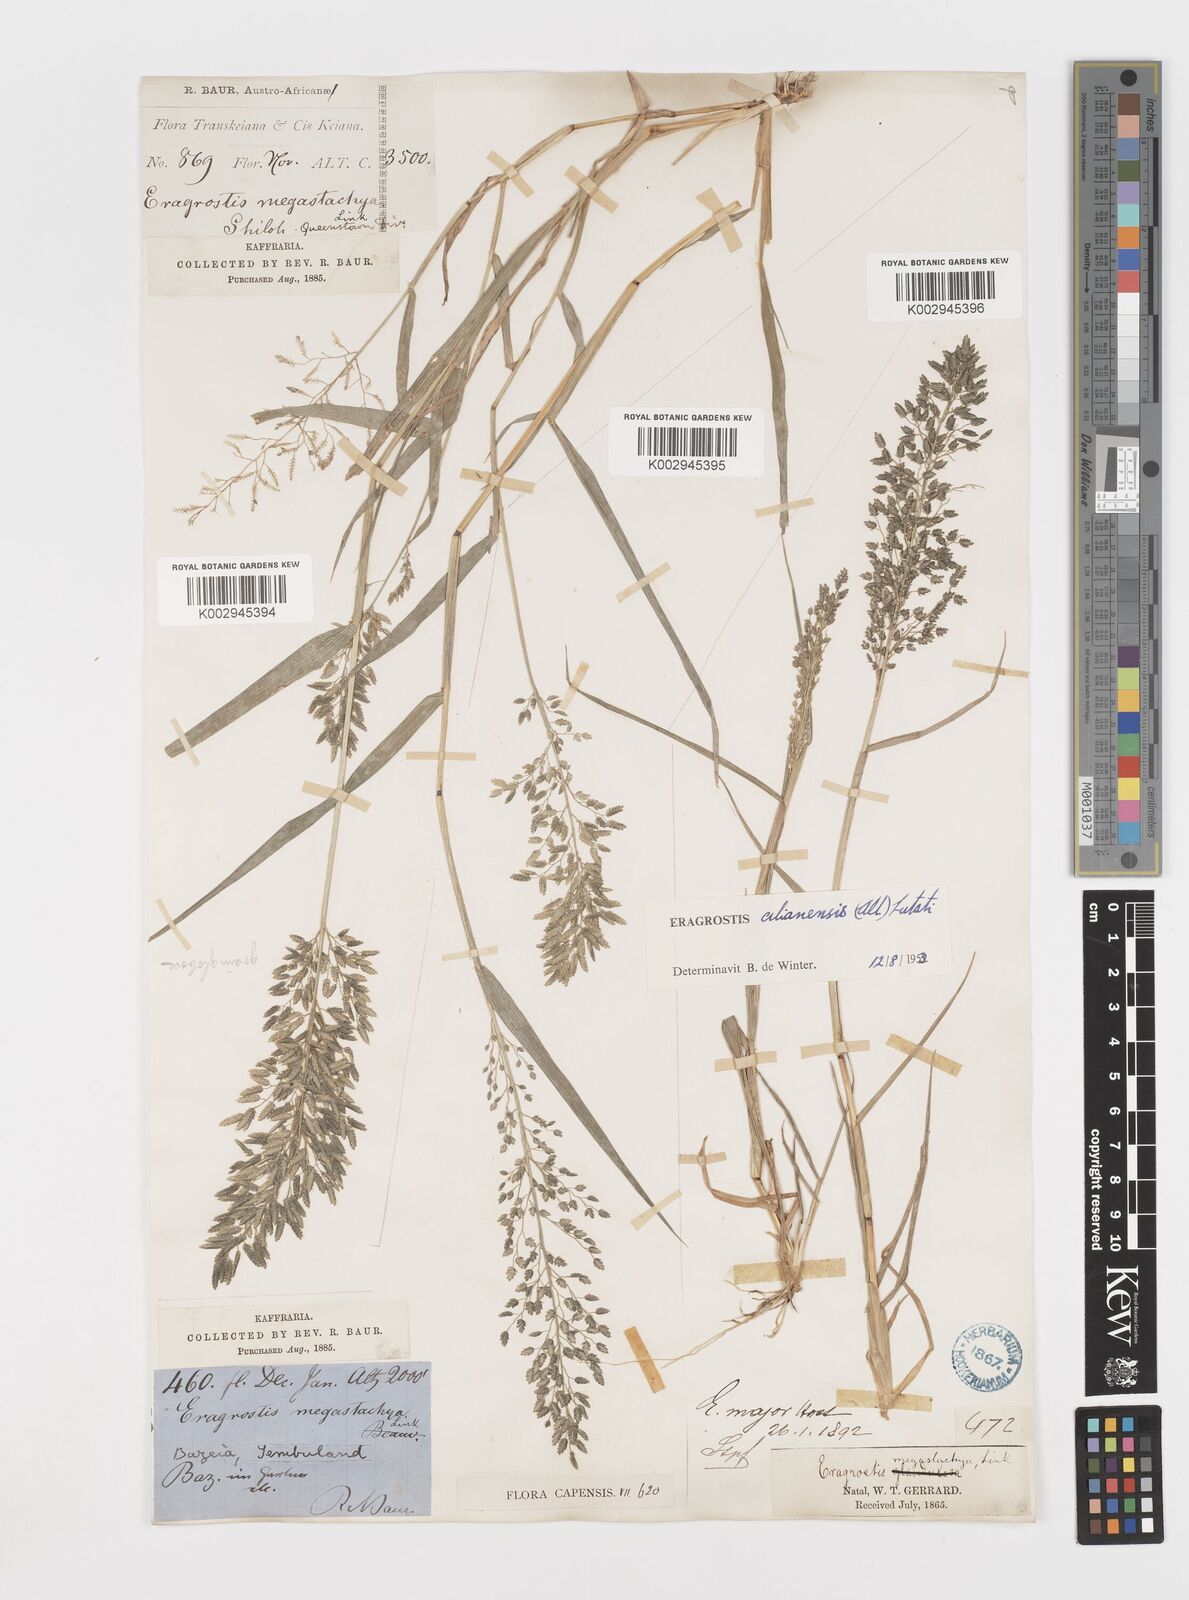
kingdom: Plantae
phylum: Tracheophyta
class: Liliopsida
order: Poales
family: Poaceae
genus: Eragrostis
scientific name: Eragrostis cilianensis
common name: Stinkgrass
